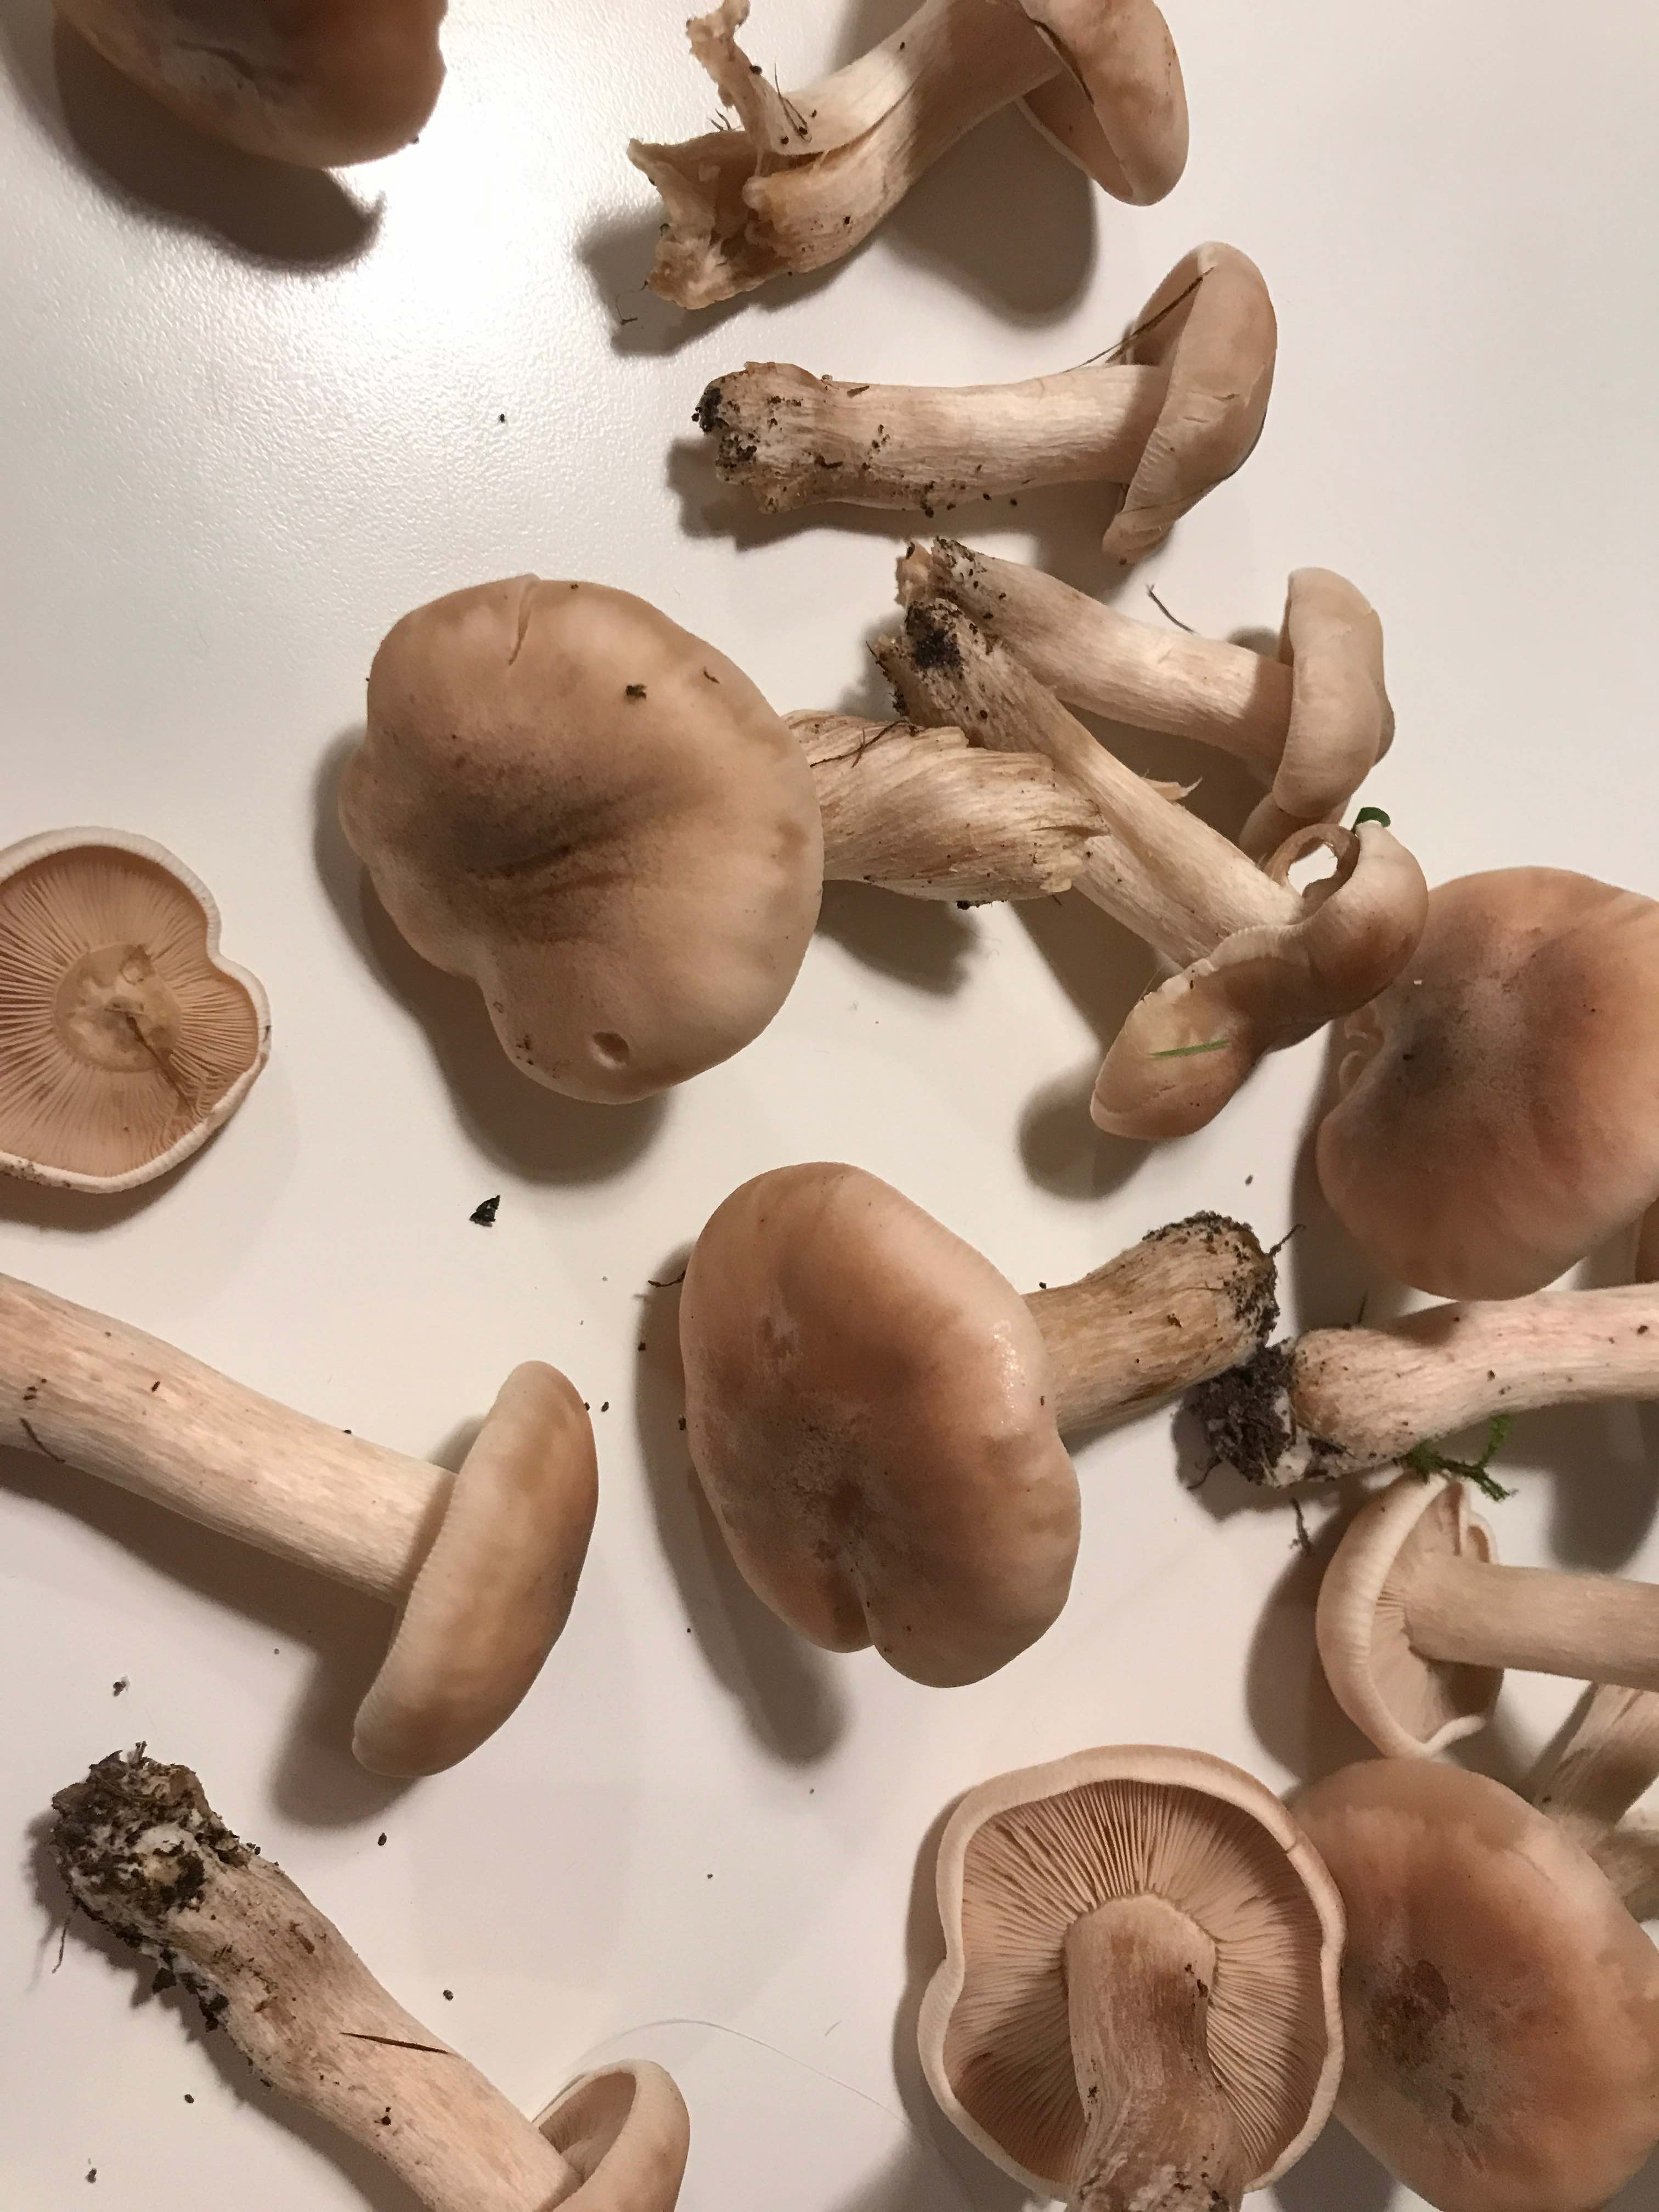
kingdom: Fungi
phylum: Basidiomycota
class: Agaricomycetes
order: Agaricales
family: Tricholomataceae
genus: Lepista
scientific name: Lepista irina
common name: violduftende hekseringshat
